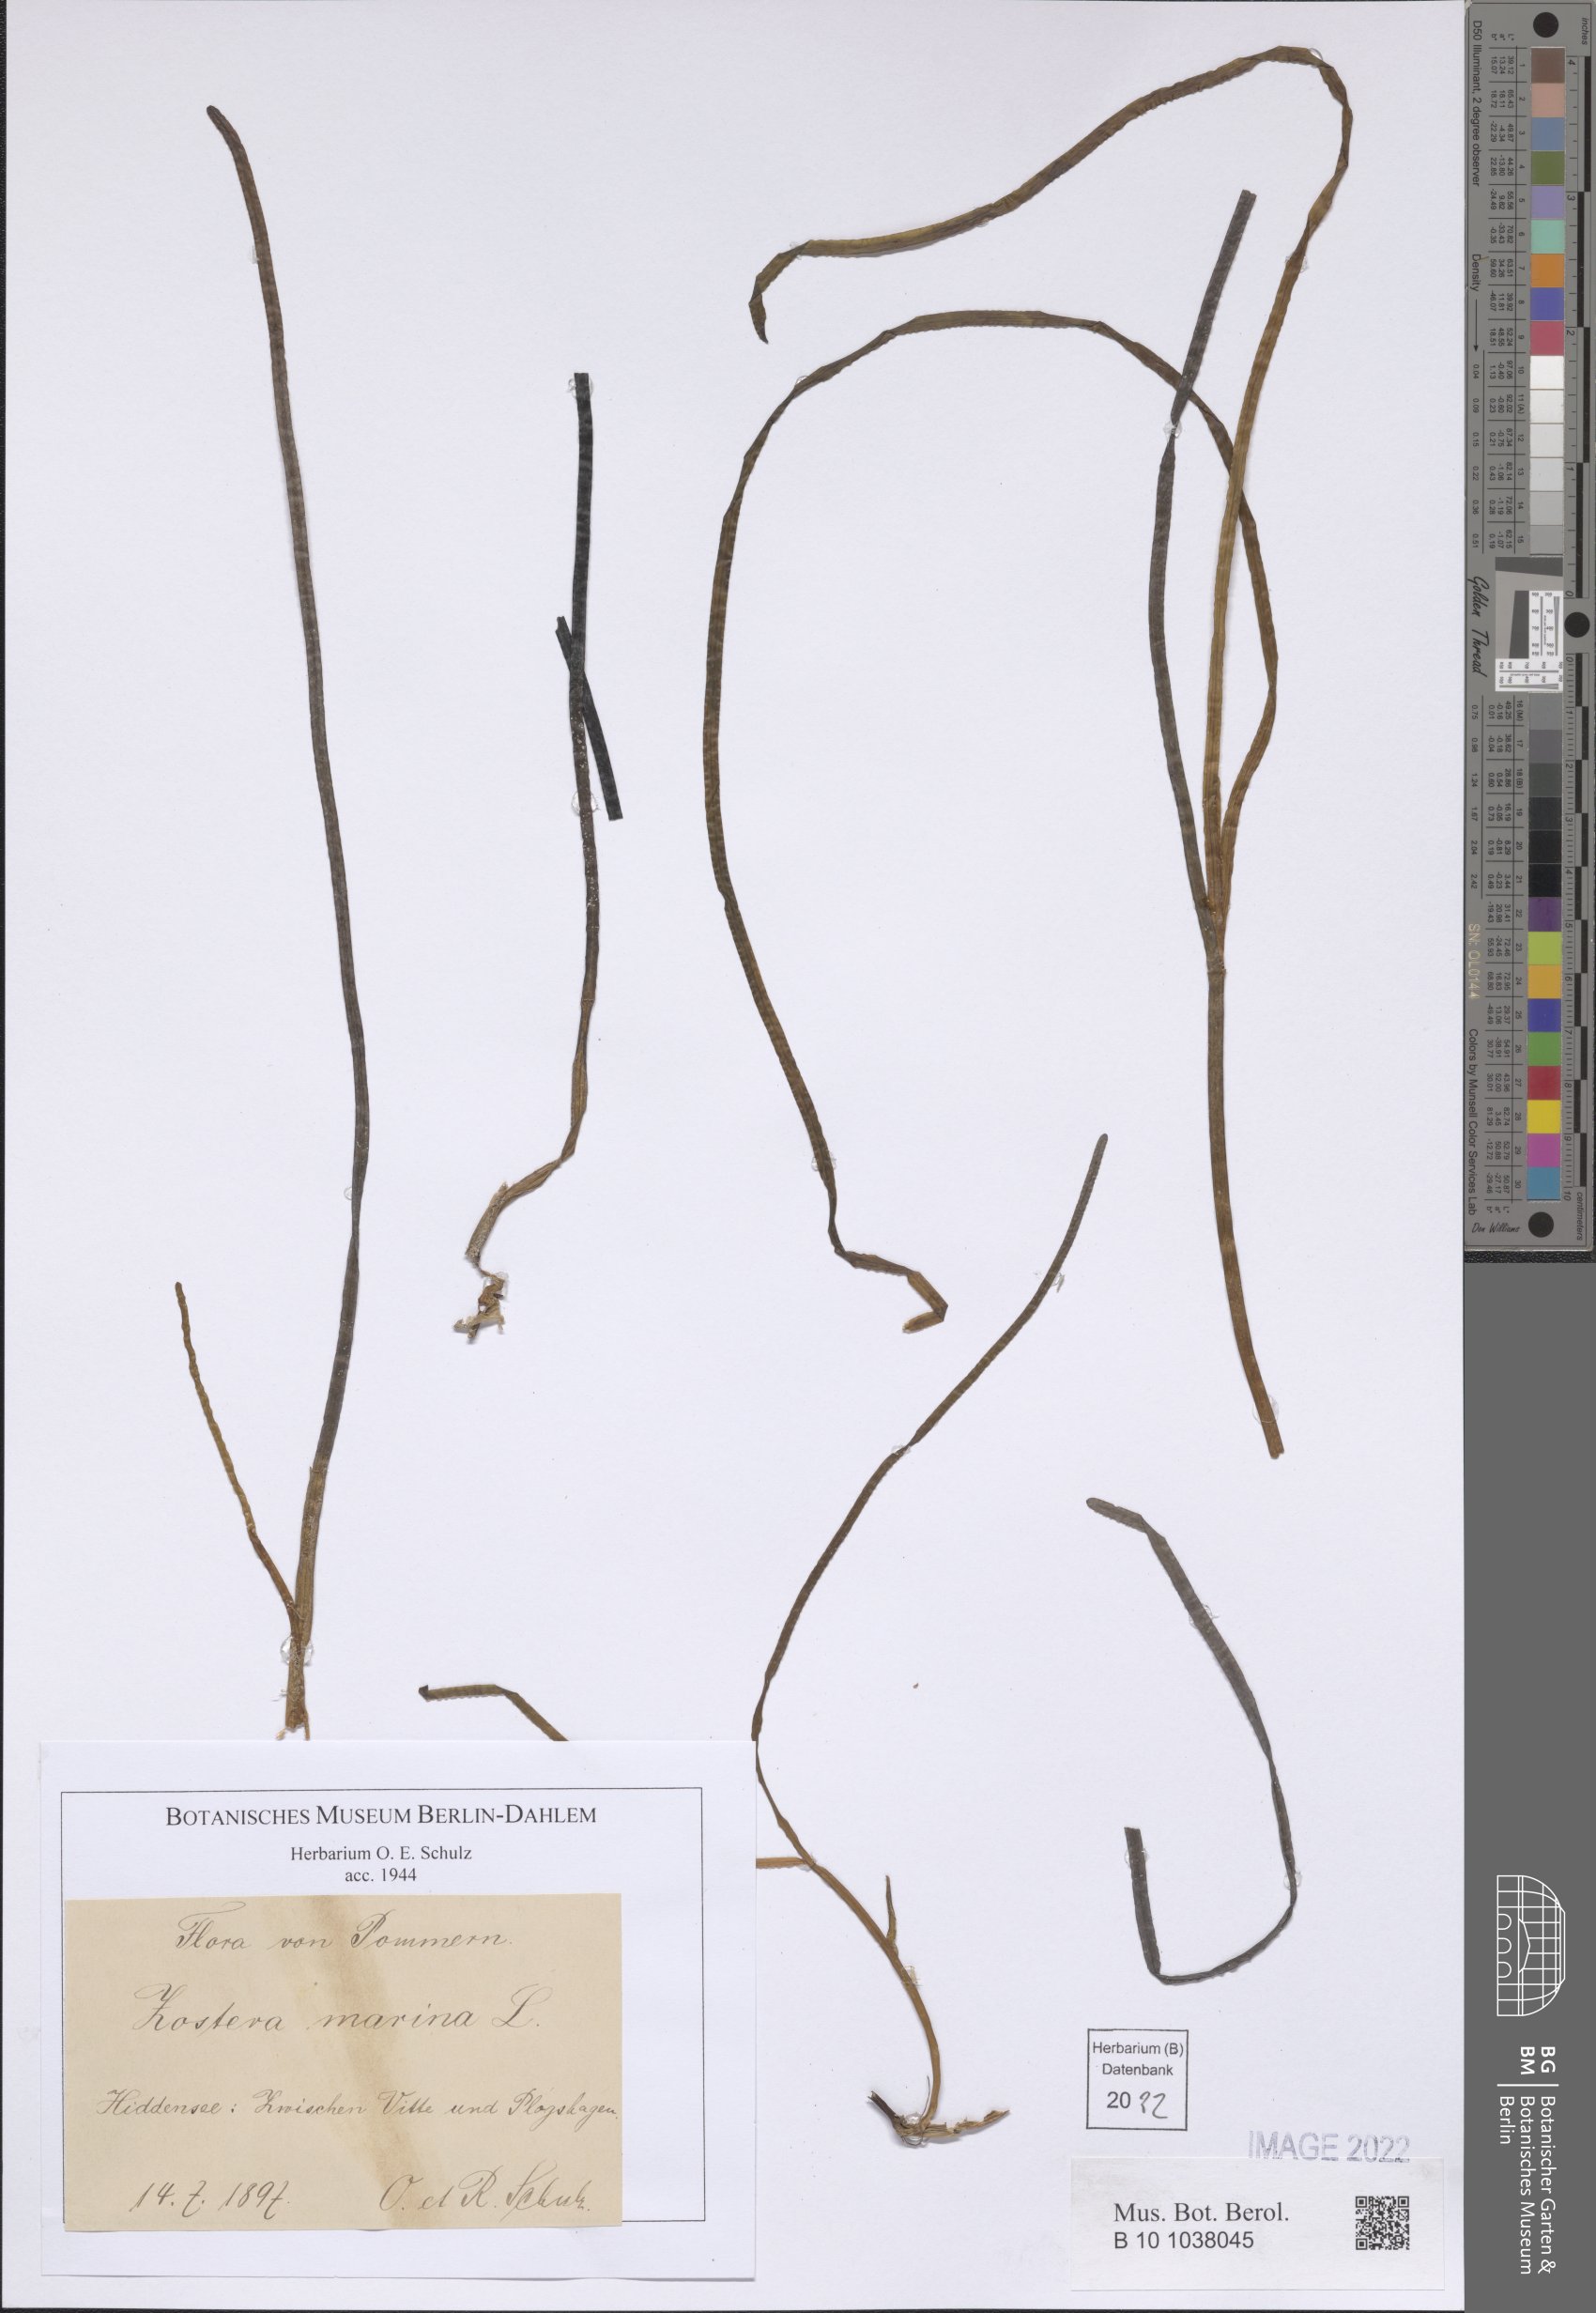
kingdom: Plantae
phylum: Tracheophyta
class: Liliopsida
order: Alismatales
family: Zosteraceae
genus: Zostera
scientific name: Zostera marina
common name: Eelgrass
